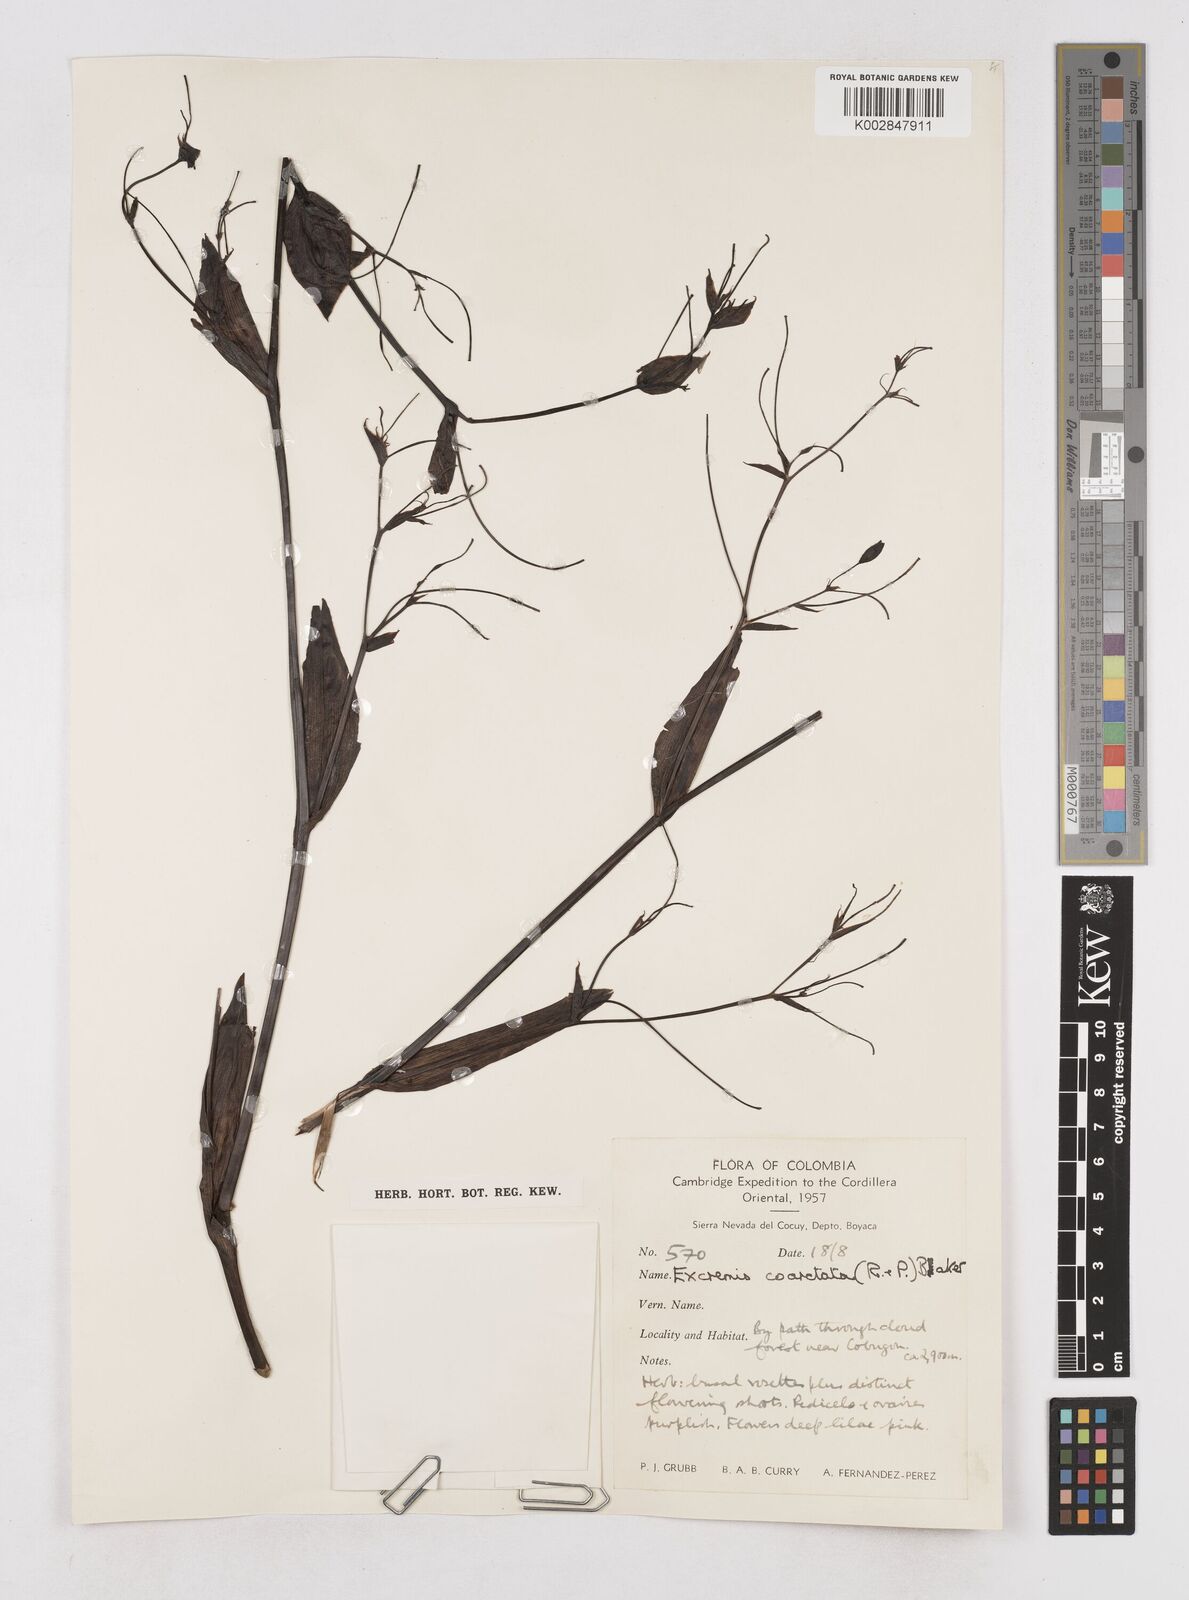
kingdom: Plantae
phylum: Tracheophyta
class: Liliopsida
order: Asparagales
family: Asphodelaceae
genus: Excremis
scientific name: Excremis coarctata
